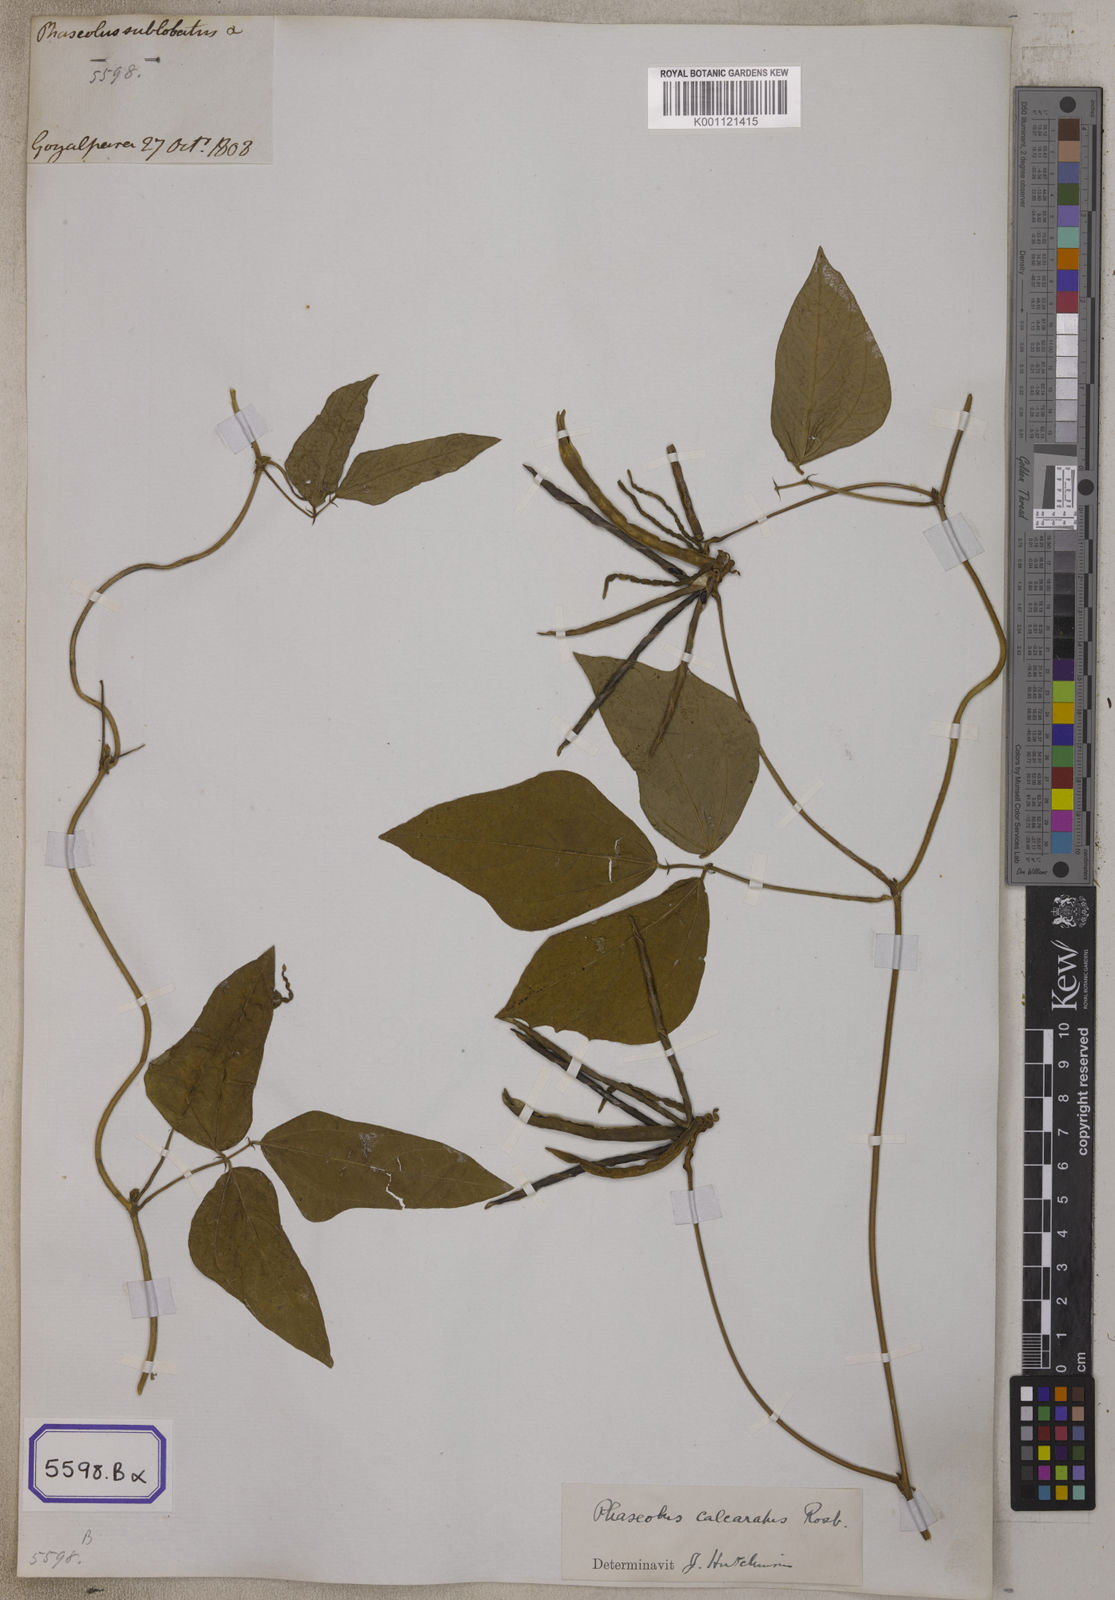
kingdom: Plantae
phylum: Tracheophyta
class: Magnoliopsida
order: Fabales
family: Fabaceae
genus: Phaseolus
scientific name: Phaseolus
